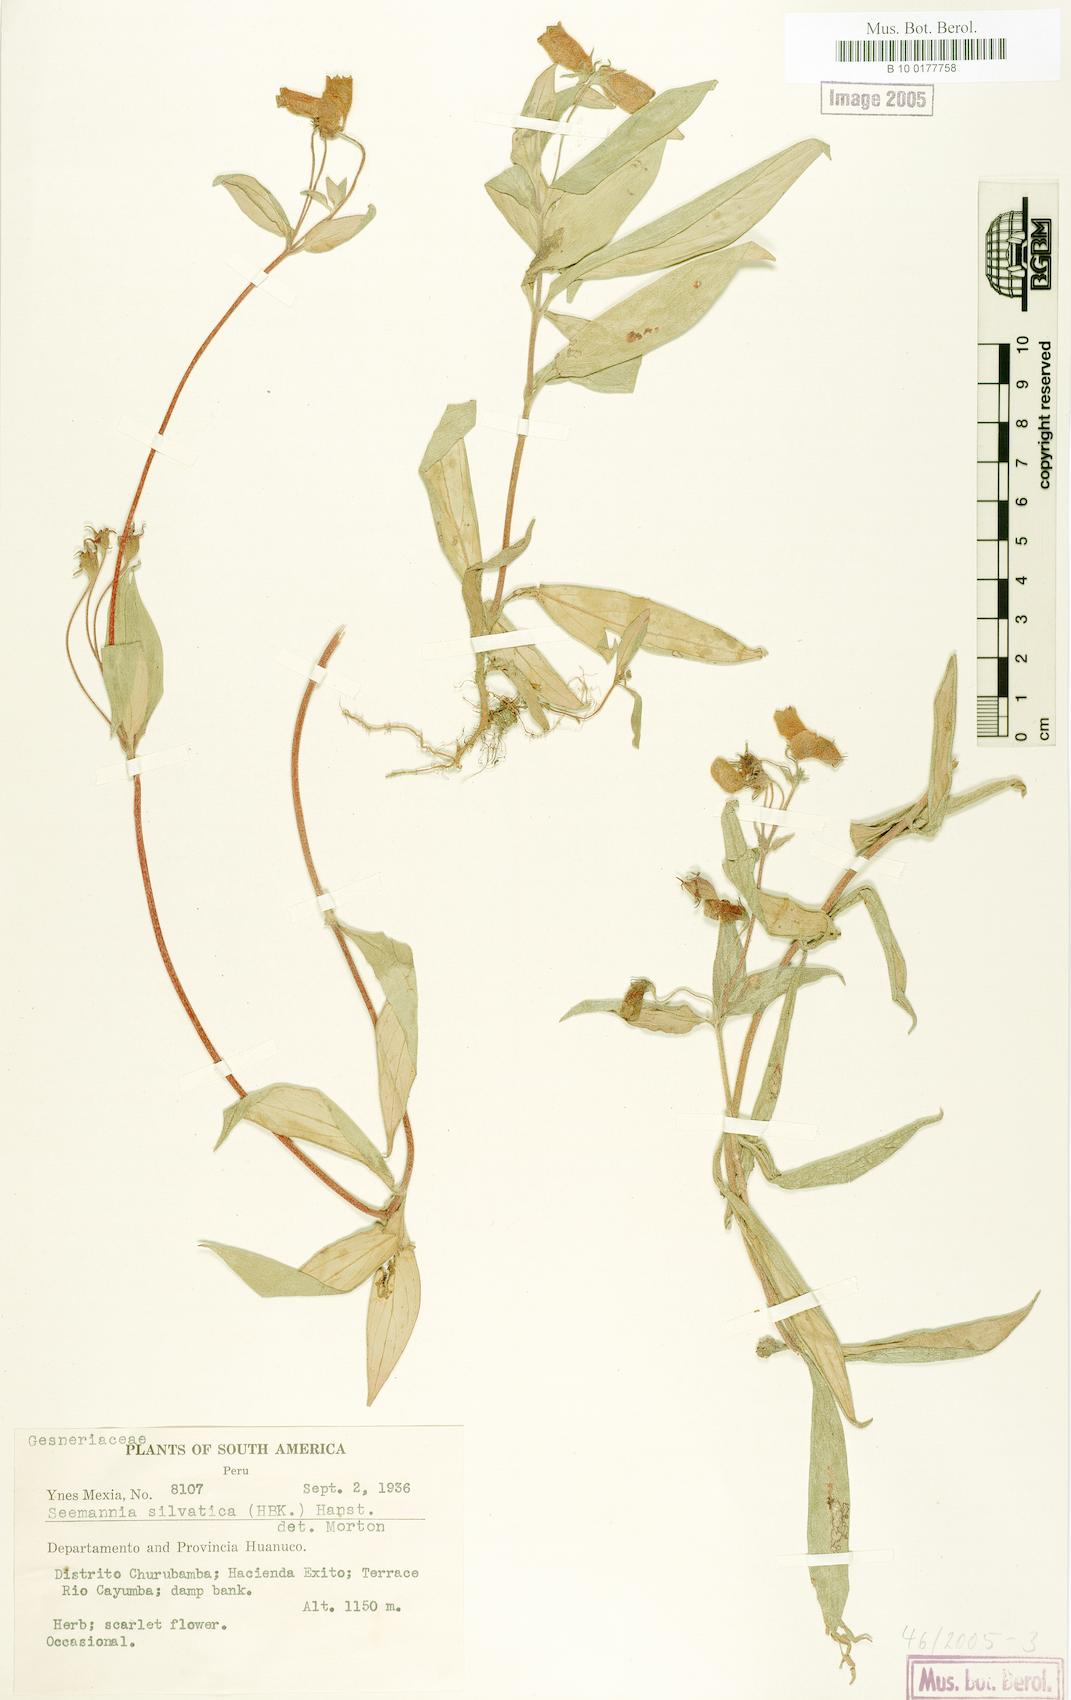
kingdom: Plantae
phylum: Tracheophyta
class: Magnoliopsida
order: Lamiales
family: Gesneriaceae
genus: Seemannia
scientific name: Seemannia sylvatica
